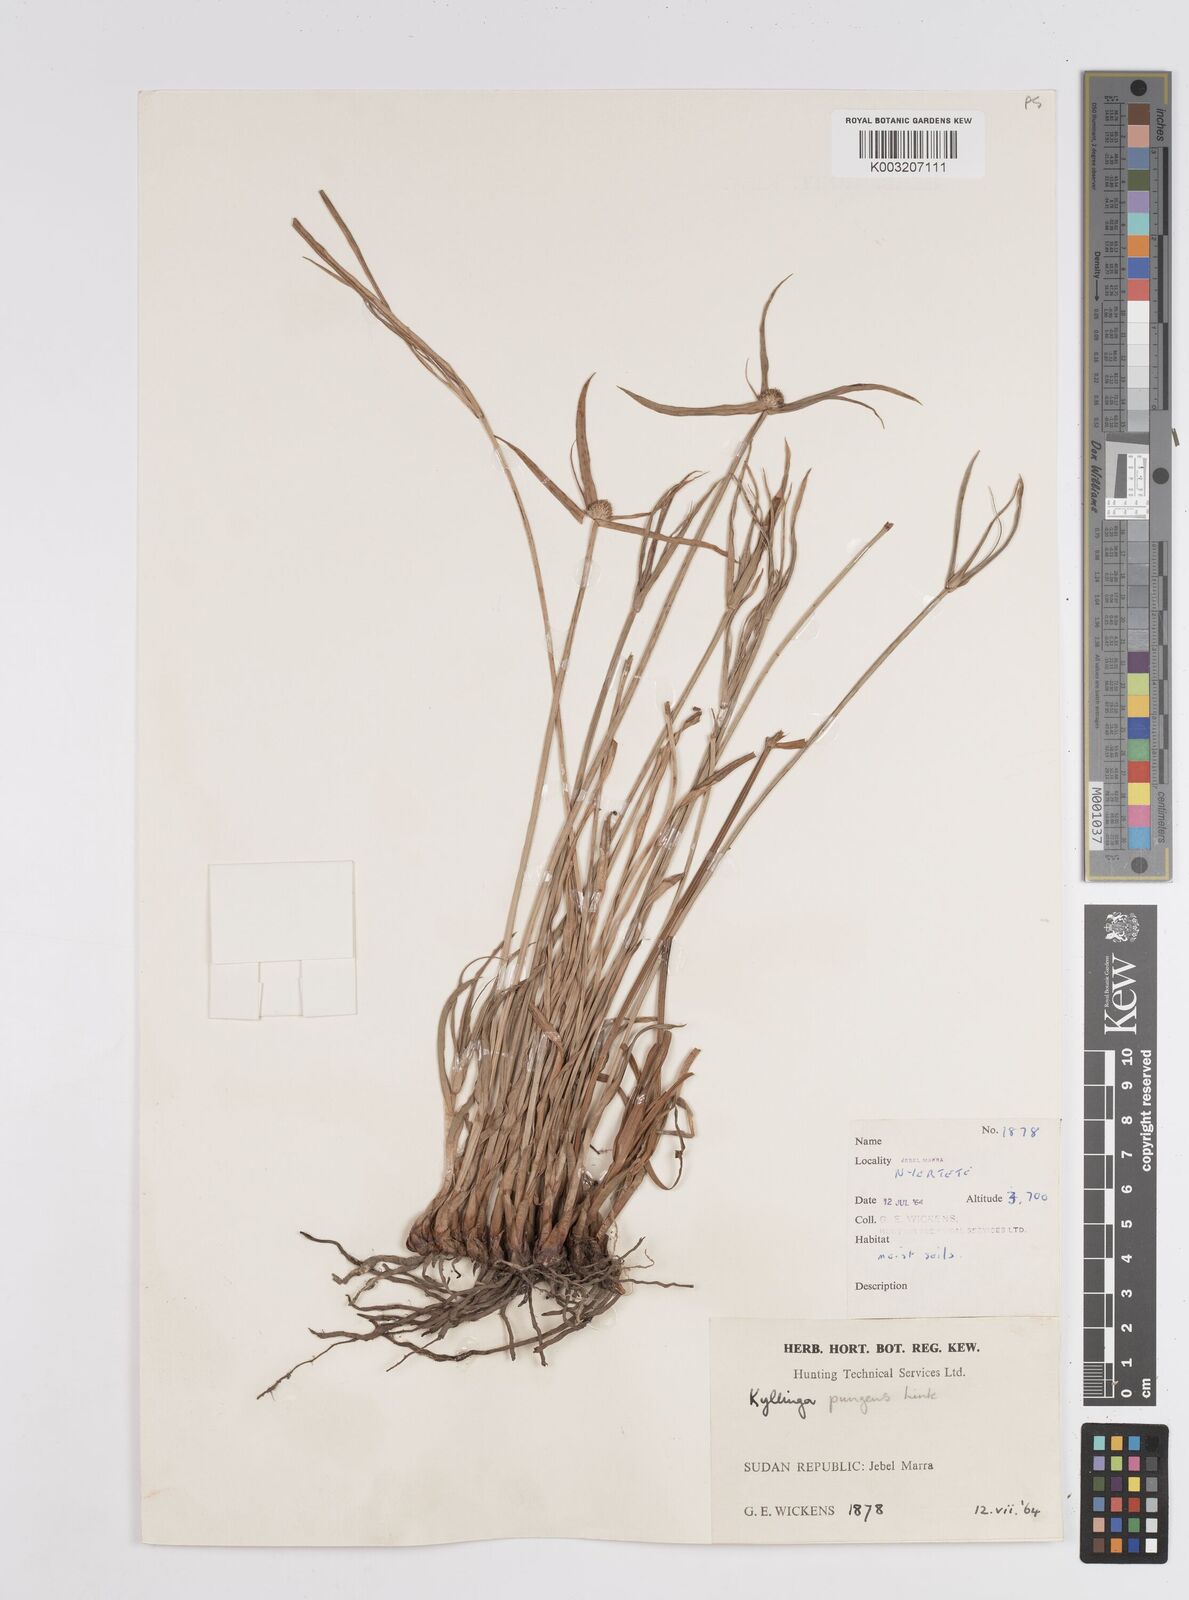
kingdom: Plantae
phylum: Tracheophyta
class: Liliopsida
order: Poales
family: Cyperaceae
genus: Cyperus
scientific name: Cyperus
